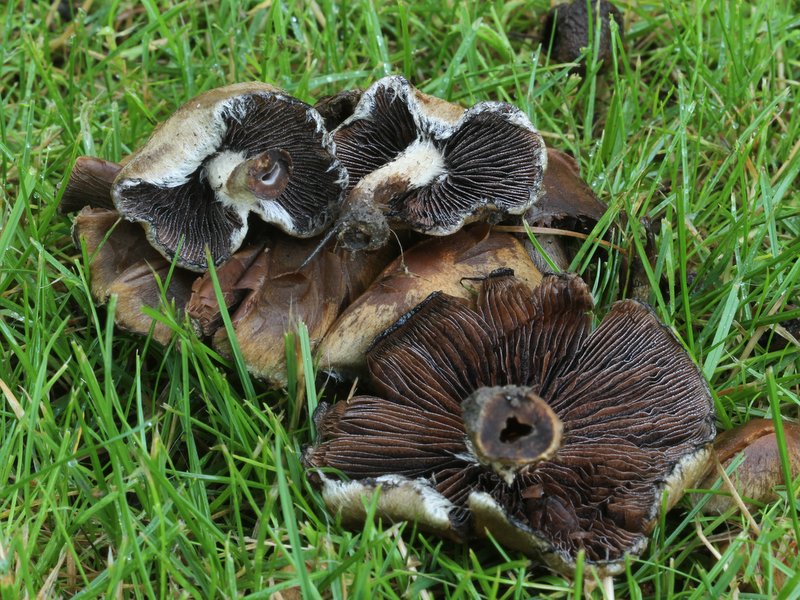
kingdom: Fungi
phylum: Basidiomycota
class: Agaricomycetes
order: Agaricales
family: Psathyrellaceae
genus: Lacrymaria
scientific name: Lacrymaria lacrymabunda
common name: grædende mørkhat
